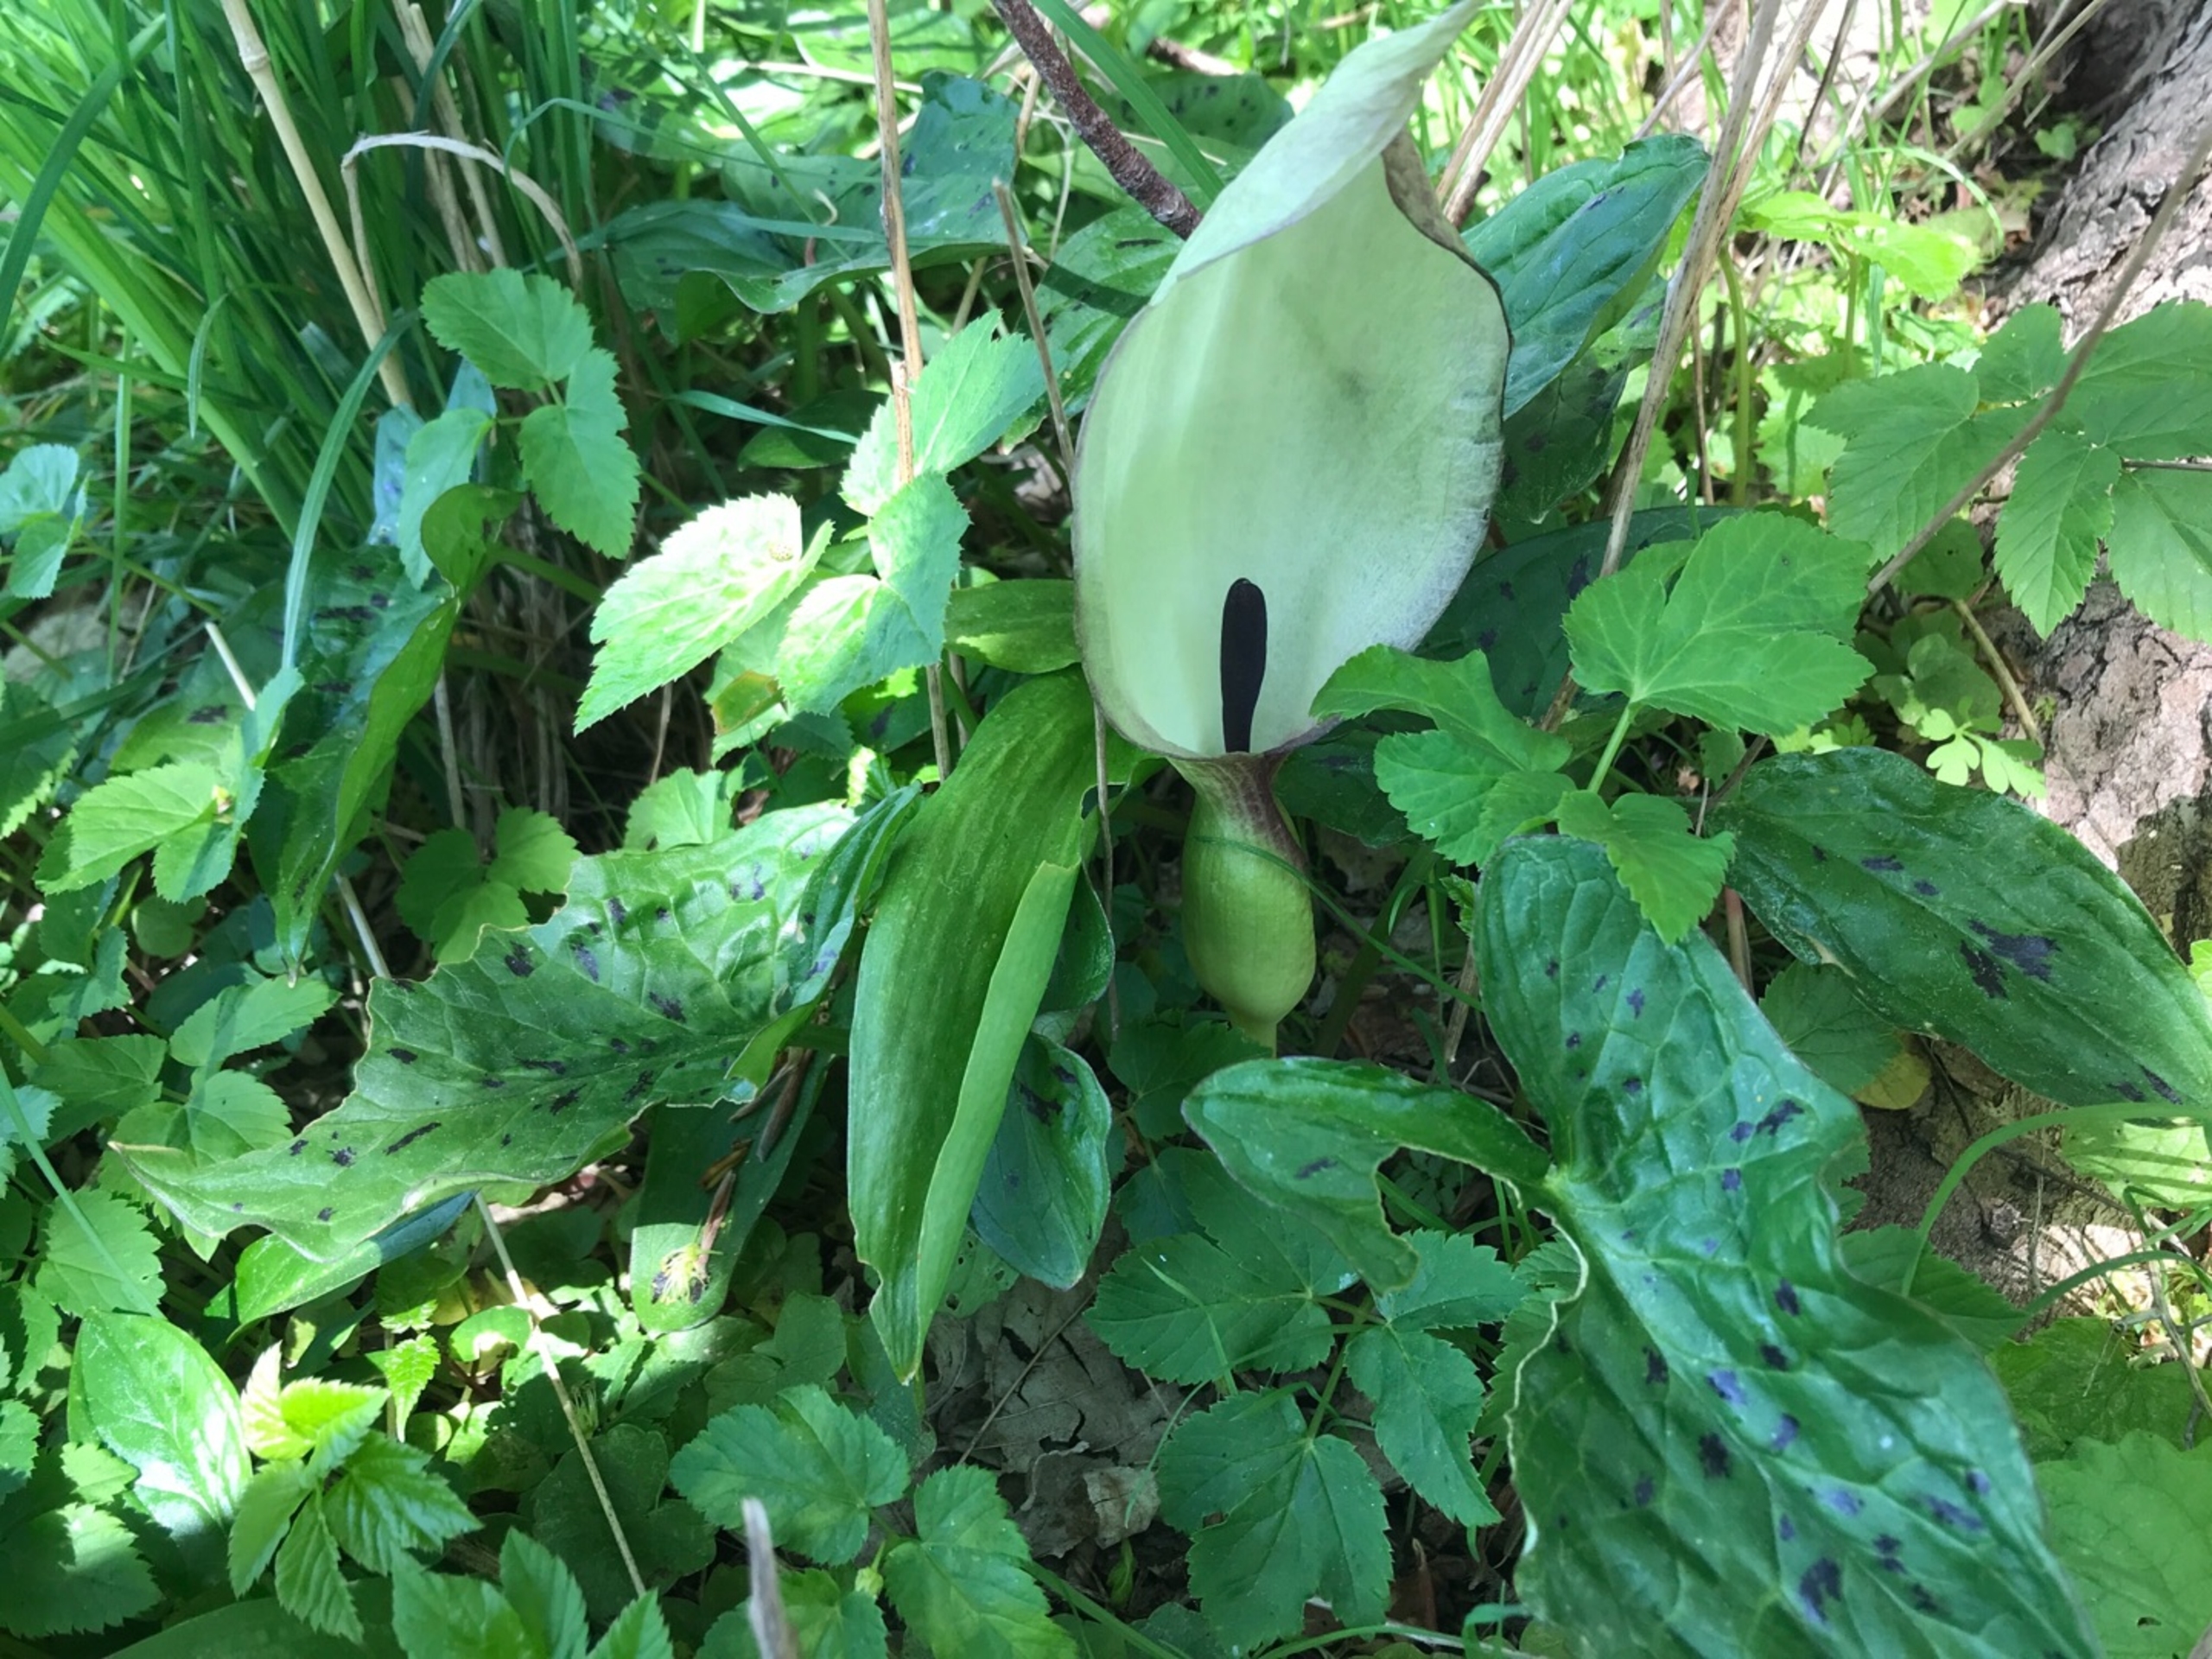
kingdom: Plantae
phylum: Tracheophyta
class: Liliopsida
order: Alismatales
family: Araceae
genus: Arum
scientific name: Arum maculatum
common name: Plettet arum
